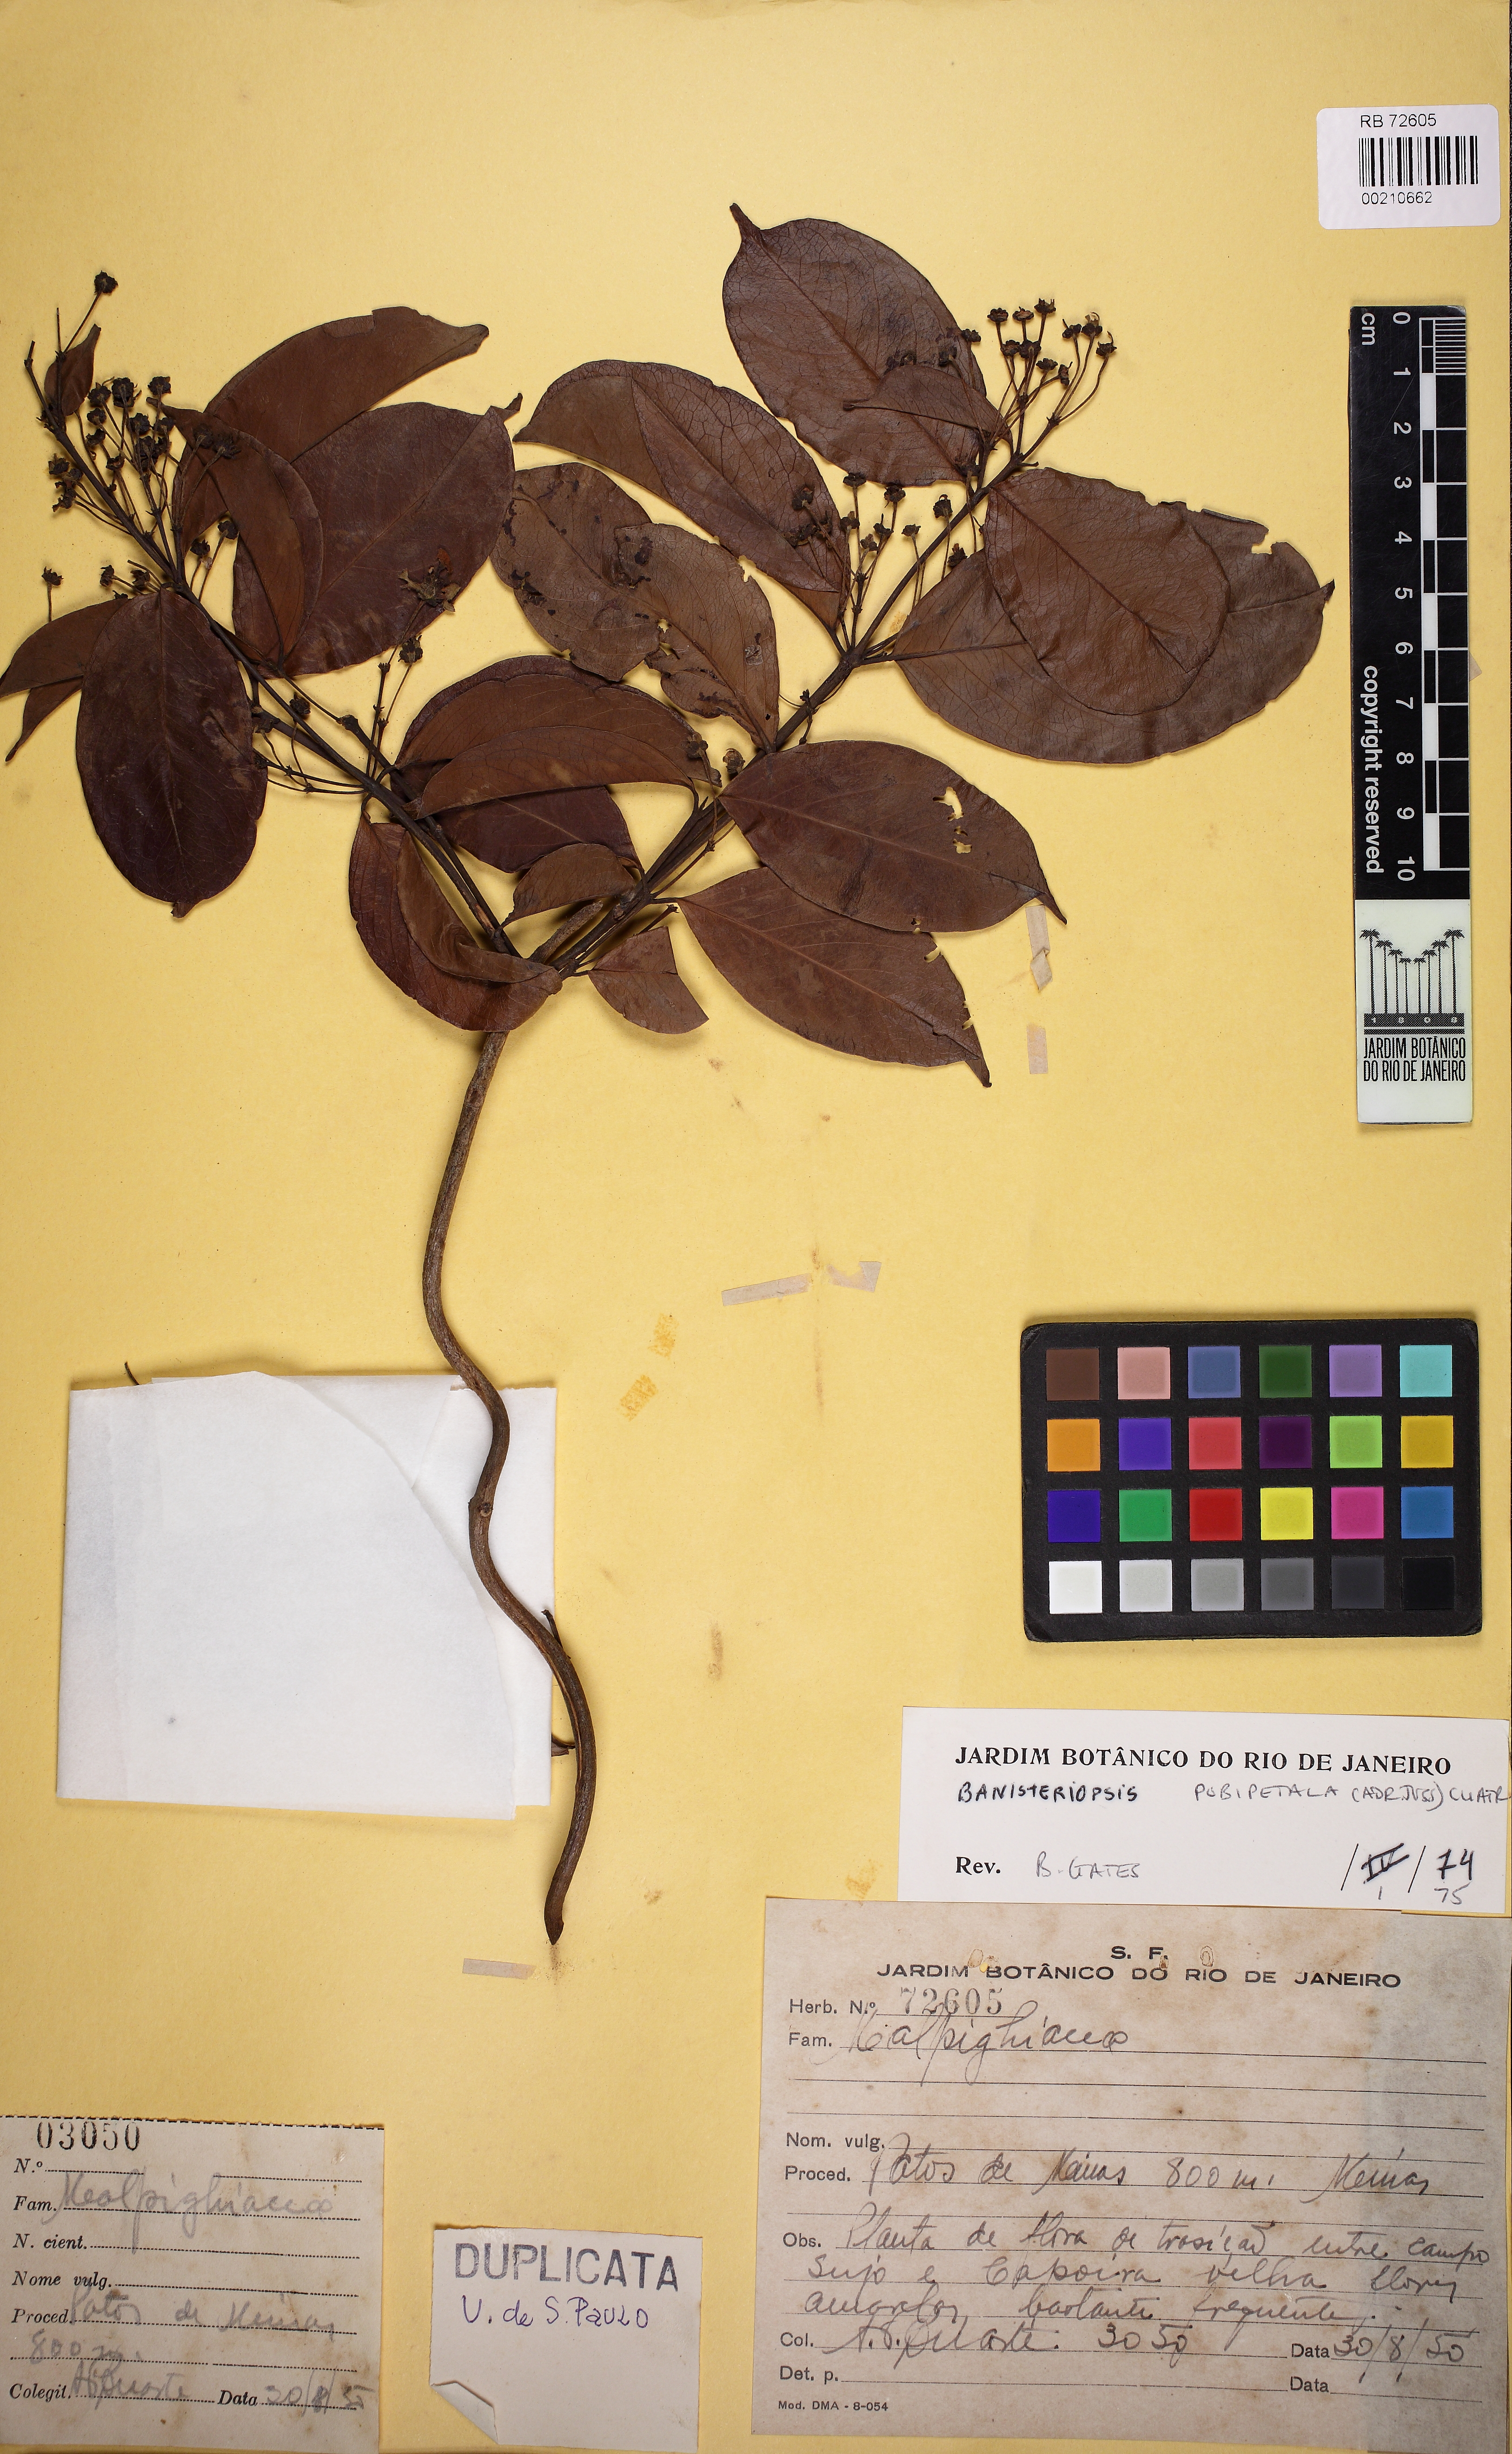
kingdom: Plantae
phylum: Tracheophyta
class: Magnoliopsida
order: Malpighiales
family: Malpighiaceae
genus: Diplopterys
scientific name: Diplopterys pubipetala
